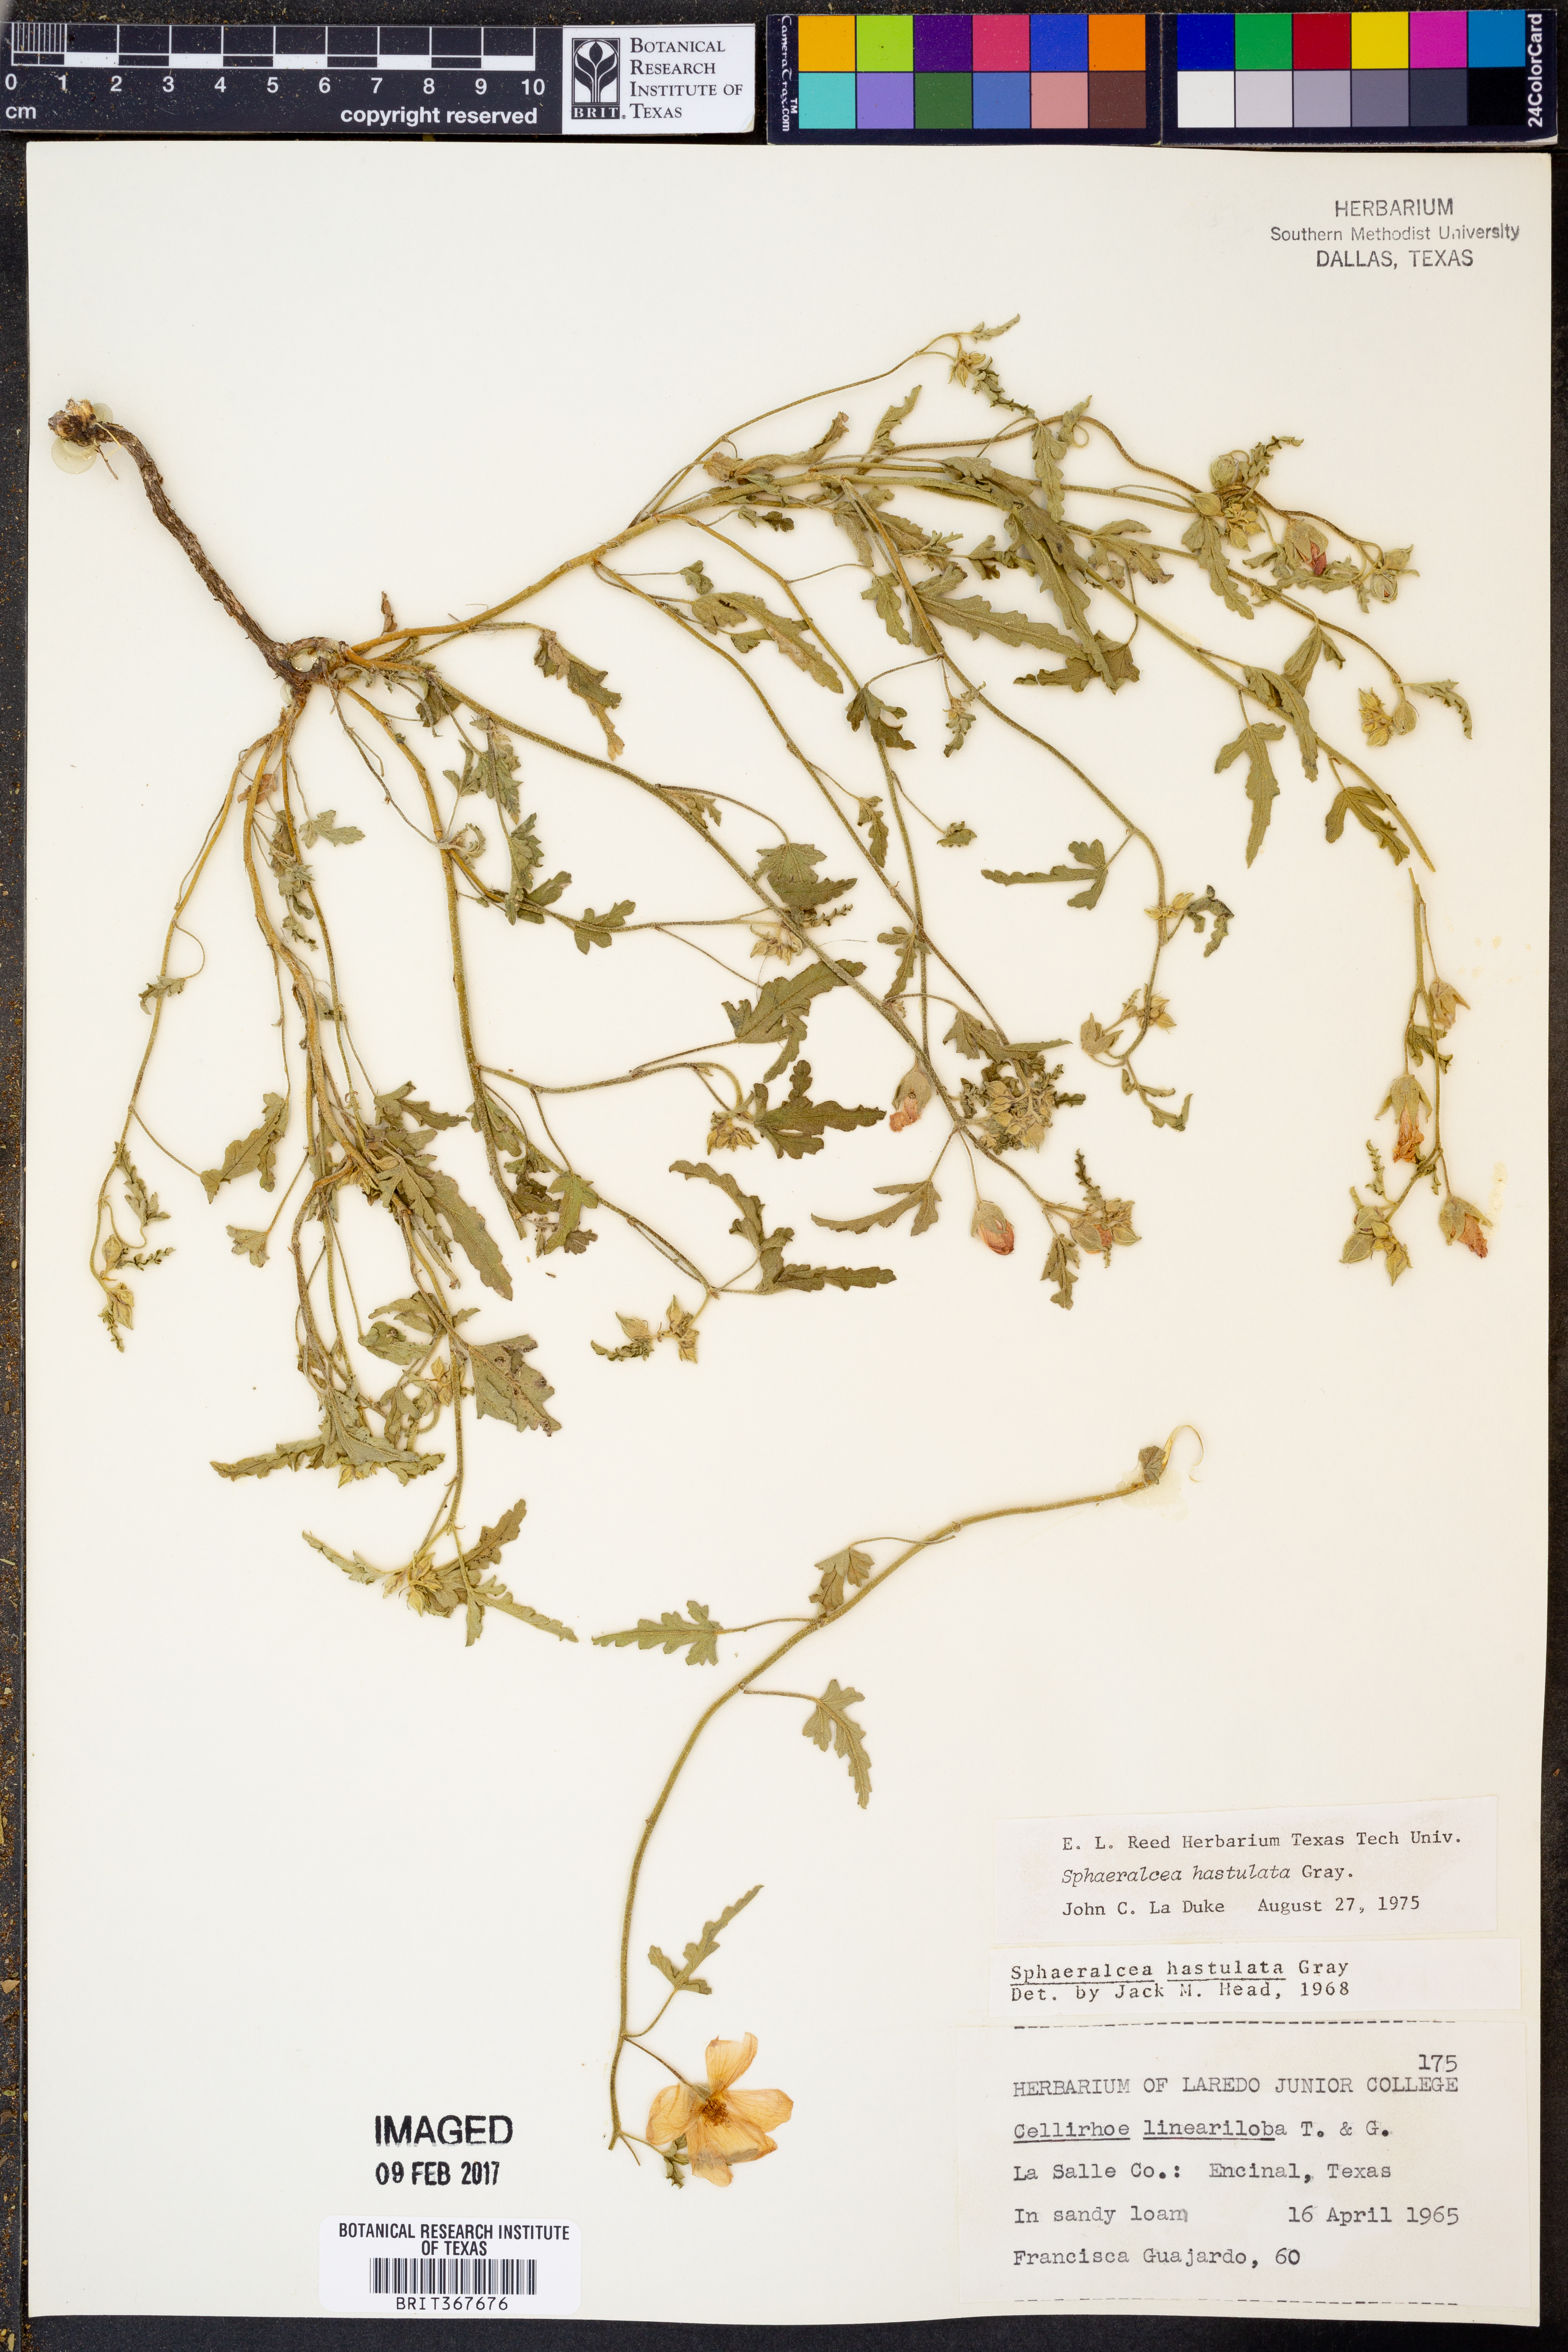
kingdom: Plantae
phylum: Tracheophyta
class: Magnoliopsida
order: Malvales
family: Malvaceae
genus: Sphaeralcea
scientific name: Sphaeralcea hastulata
